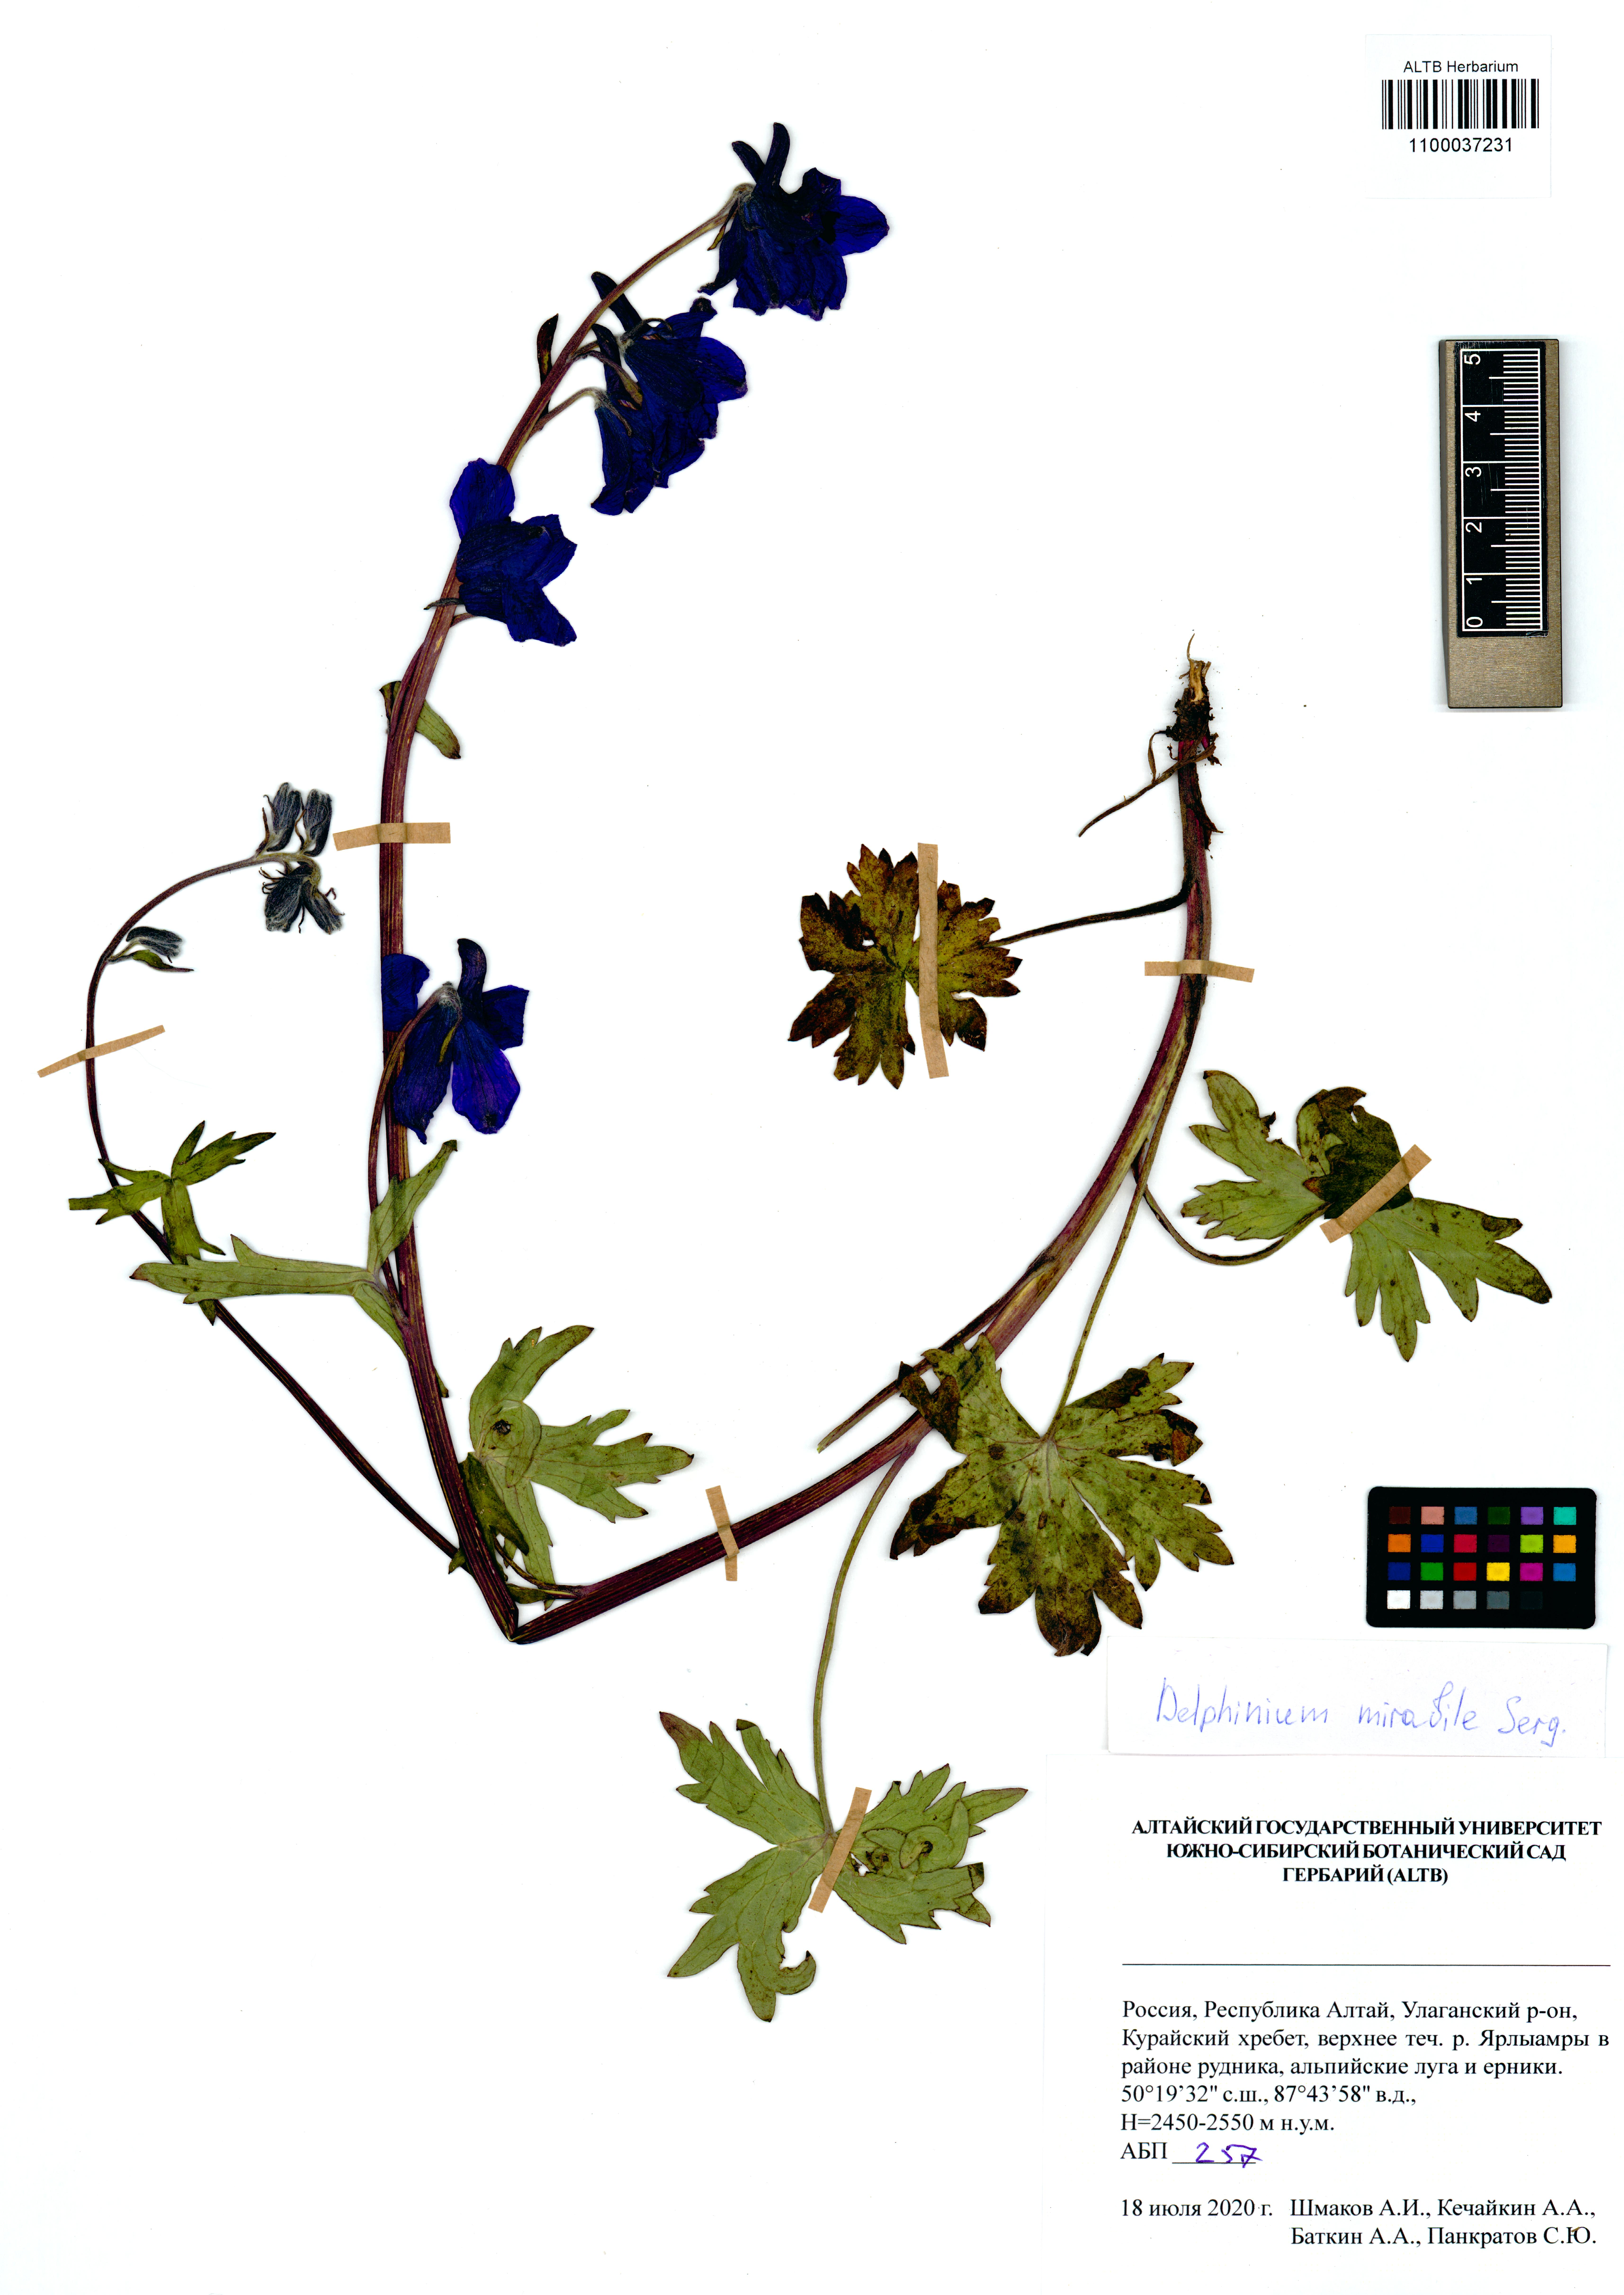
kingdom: Plantae
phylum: Tracheophyta
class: Magnoliopsida
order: Ranunculales
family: Ranunculaceae
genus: Delphinium
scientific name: Delphinium mirabile
